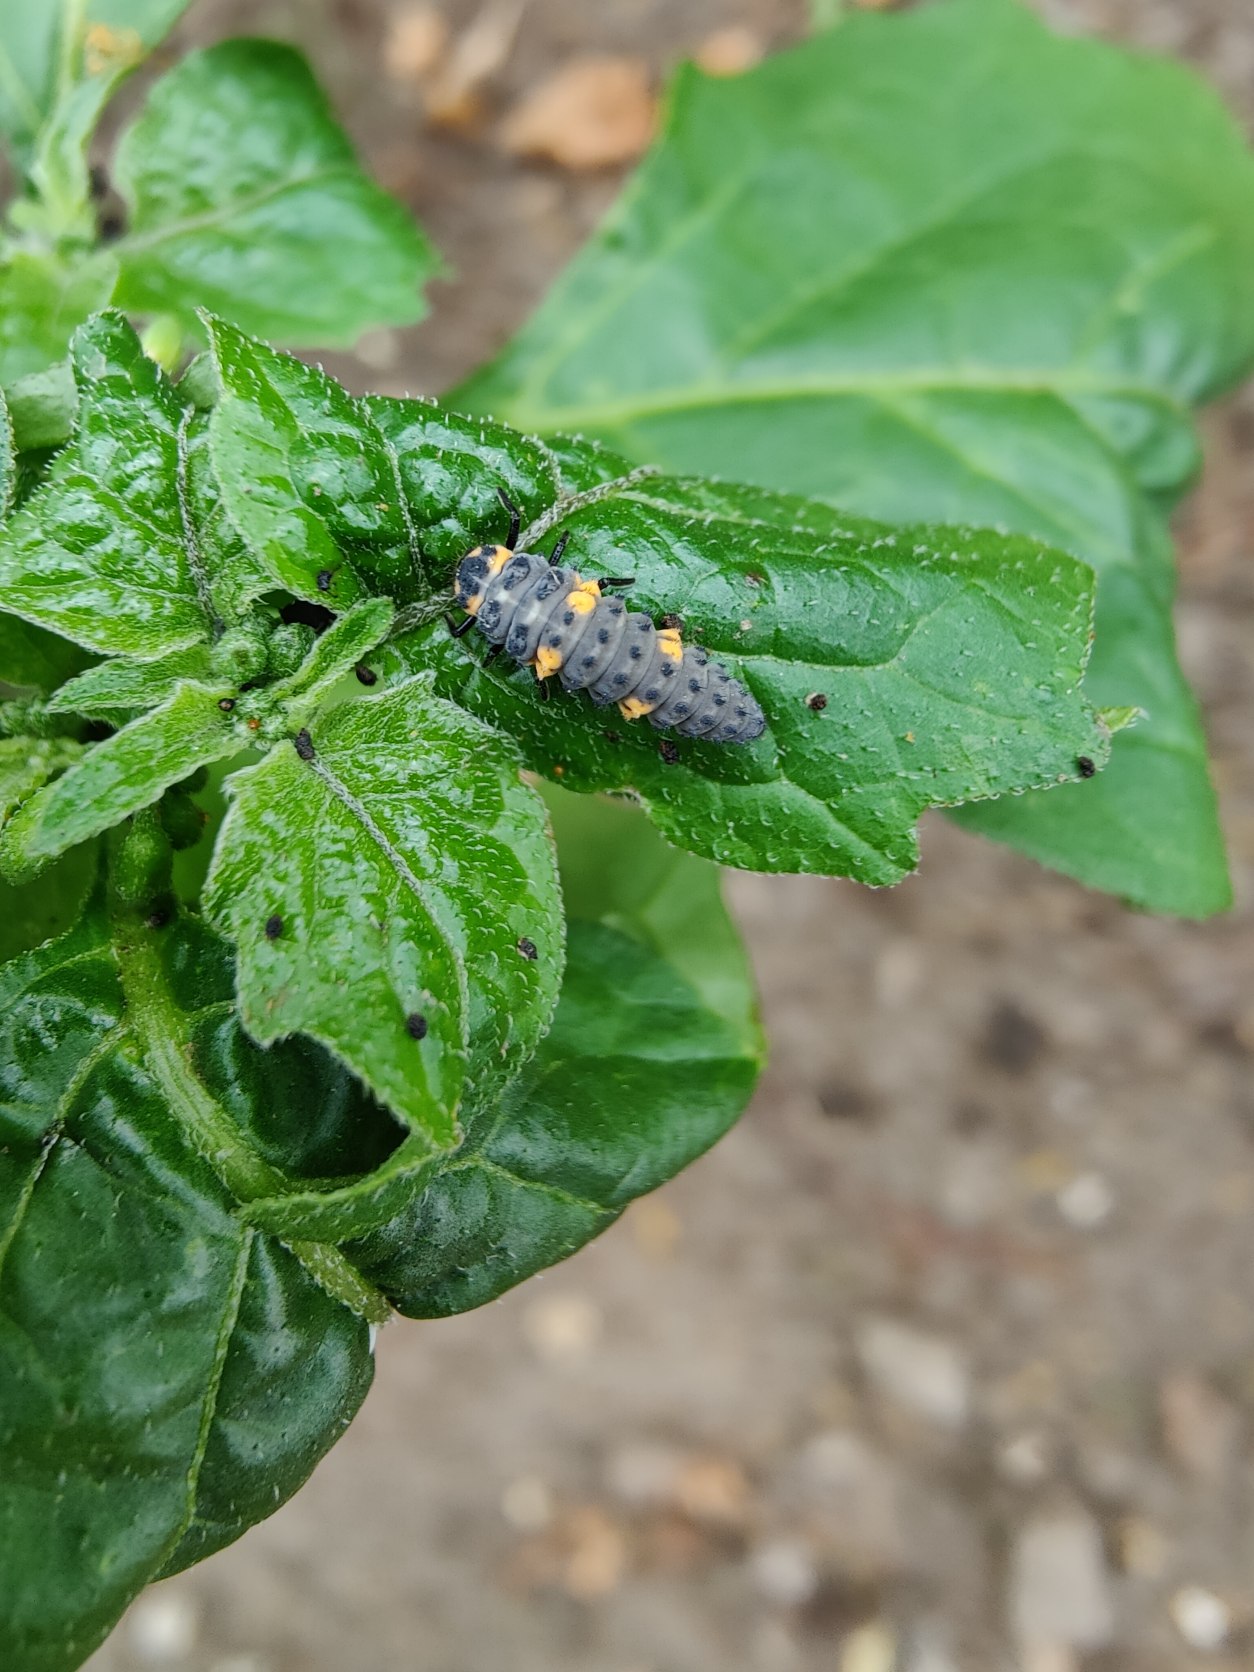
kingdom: Animalia
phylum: Arthropoda
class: Insecta
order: Coleoptera
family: Coccinellidae
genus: Coccinella
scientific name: Coccinella septempunctata
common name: Syvplettet mariehøne
